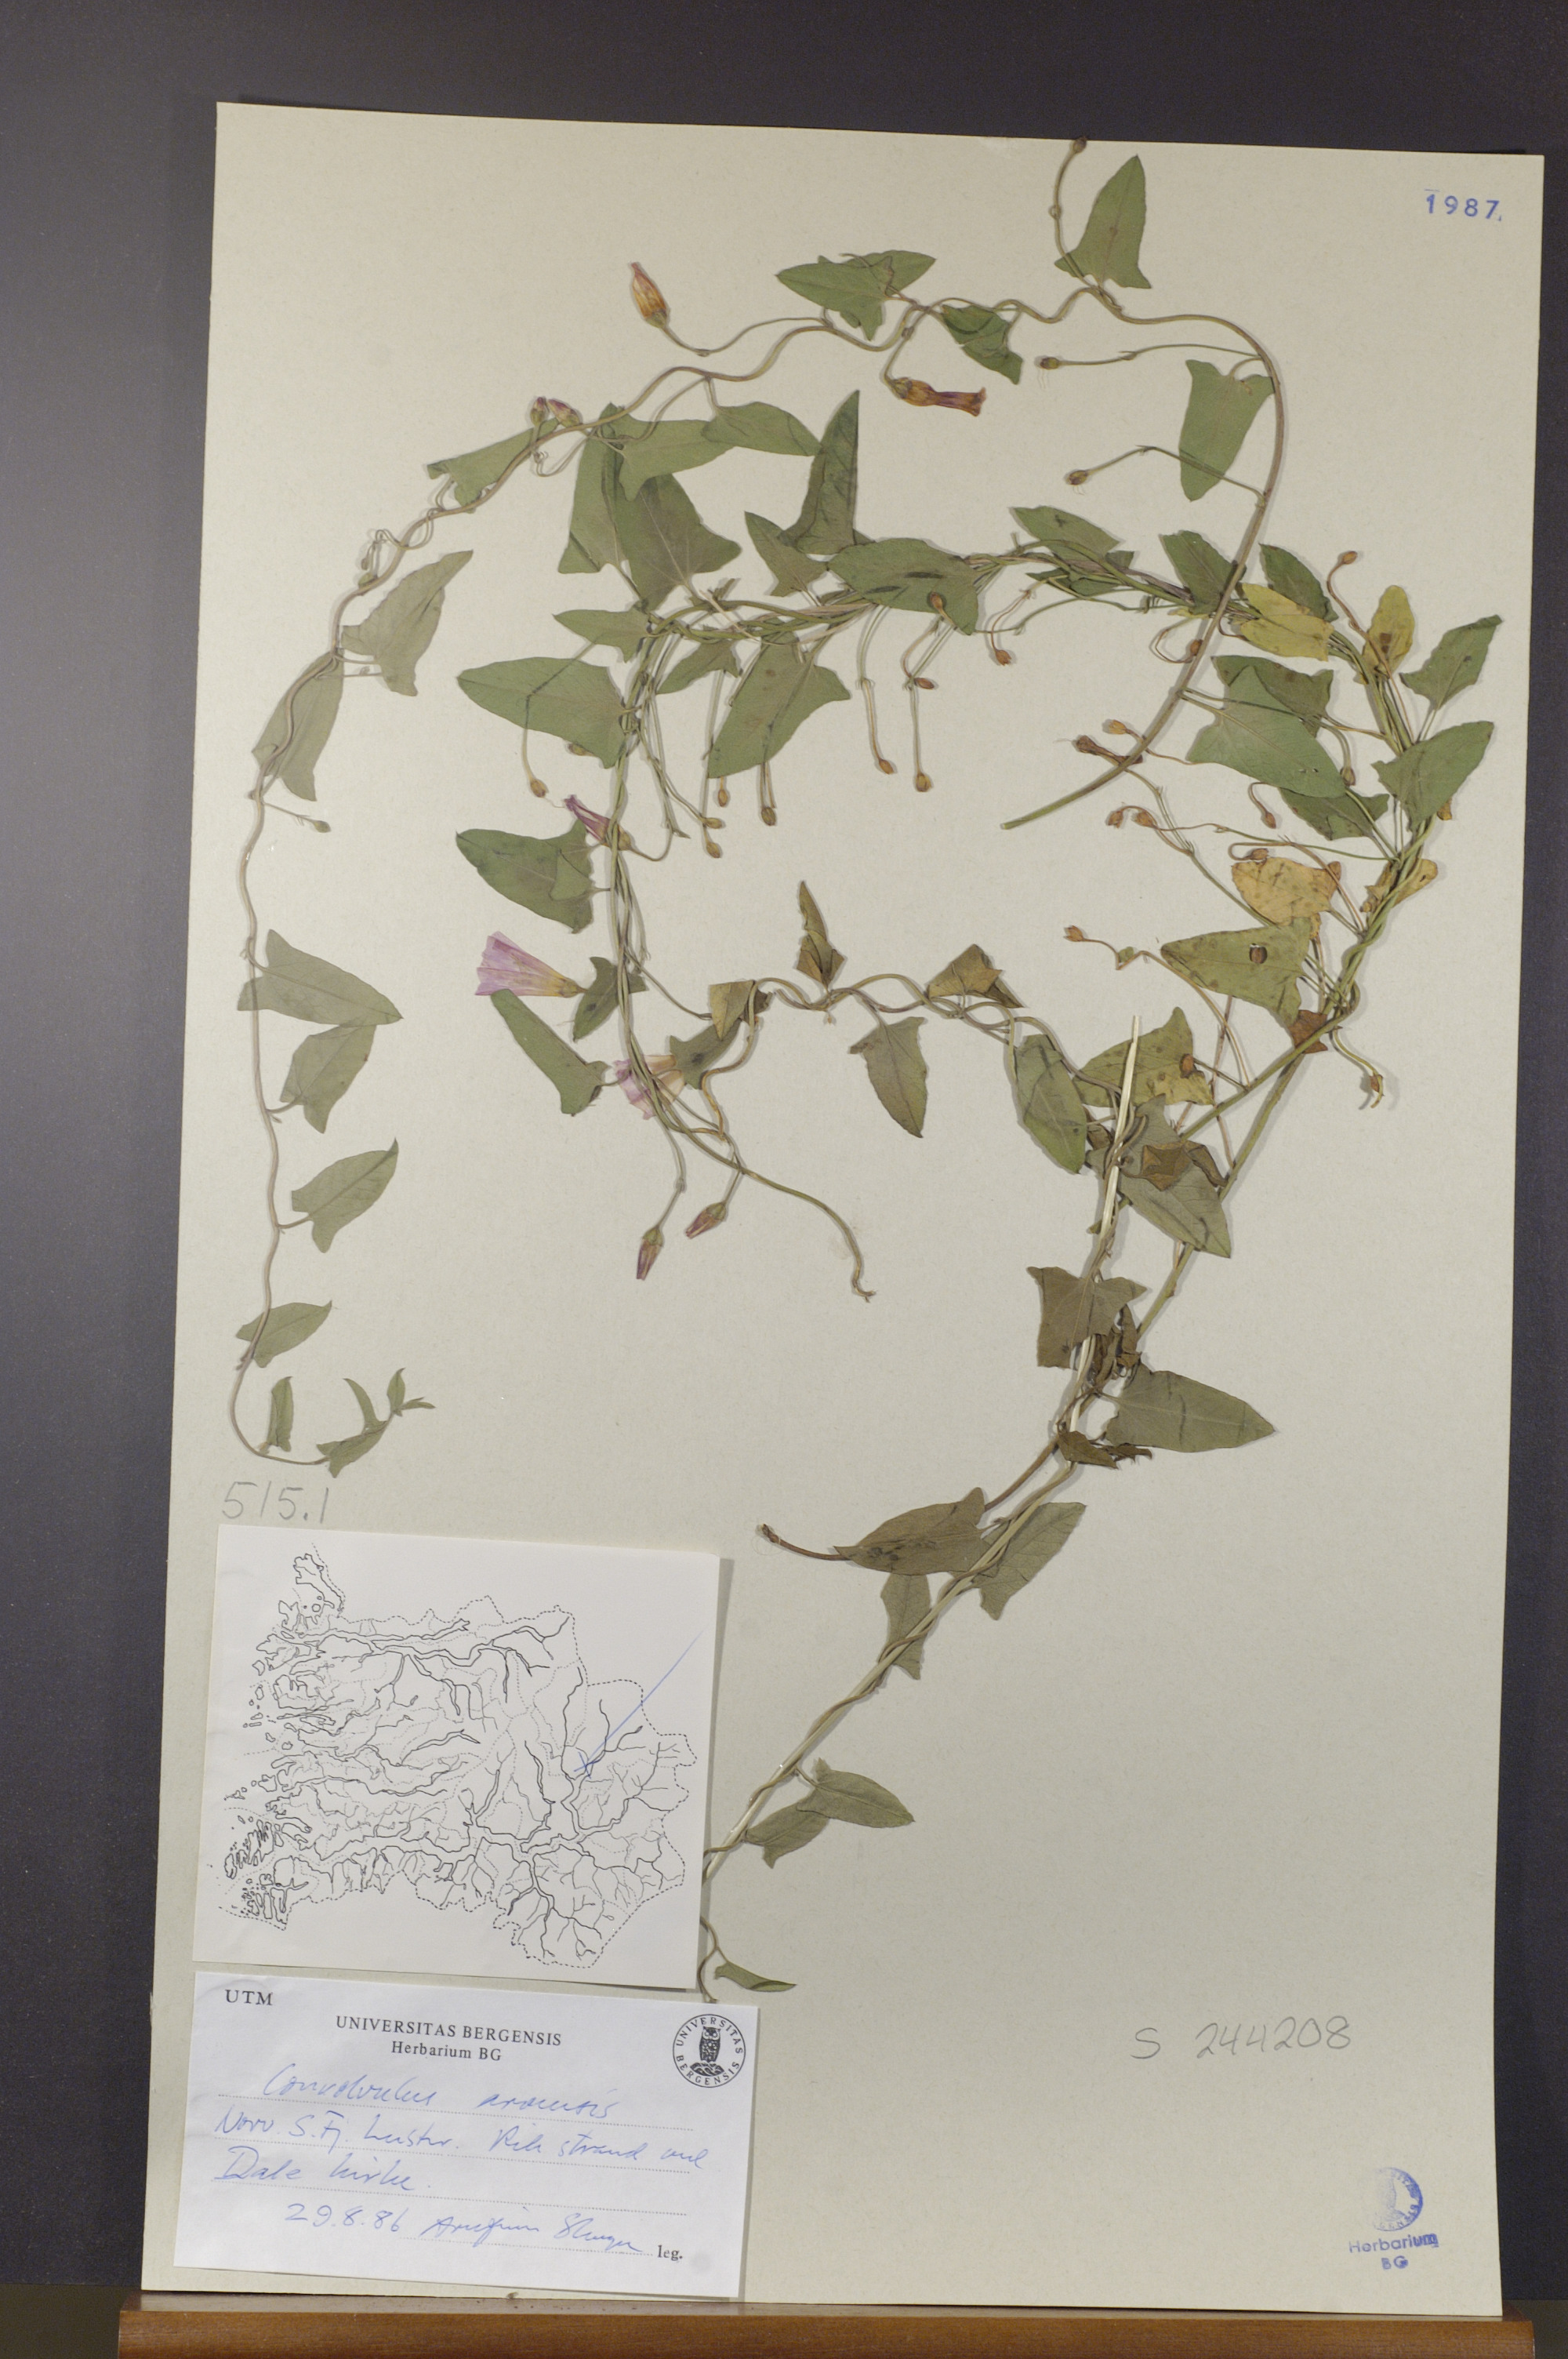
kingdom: Plantae
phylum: Tracheophyta
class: Magnoliopsida
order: Solanales
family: Convolvulaceae
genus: Convolvulus
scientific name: Convolvulus arvensis
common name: Field bindweed
